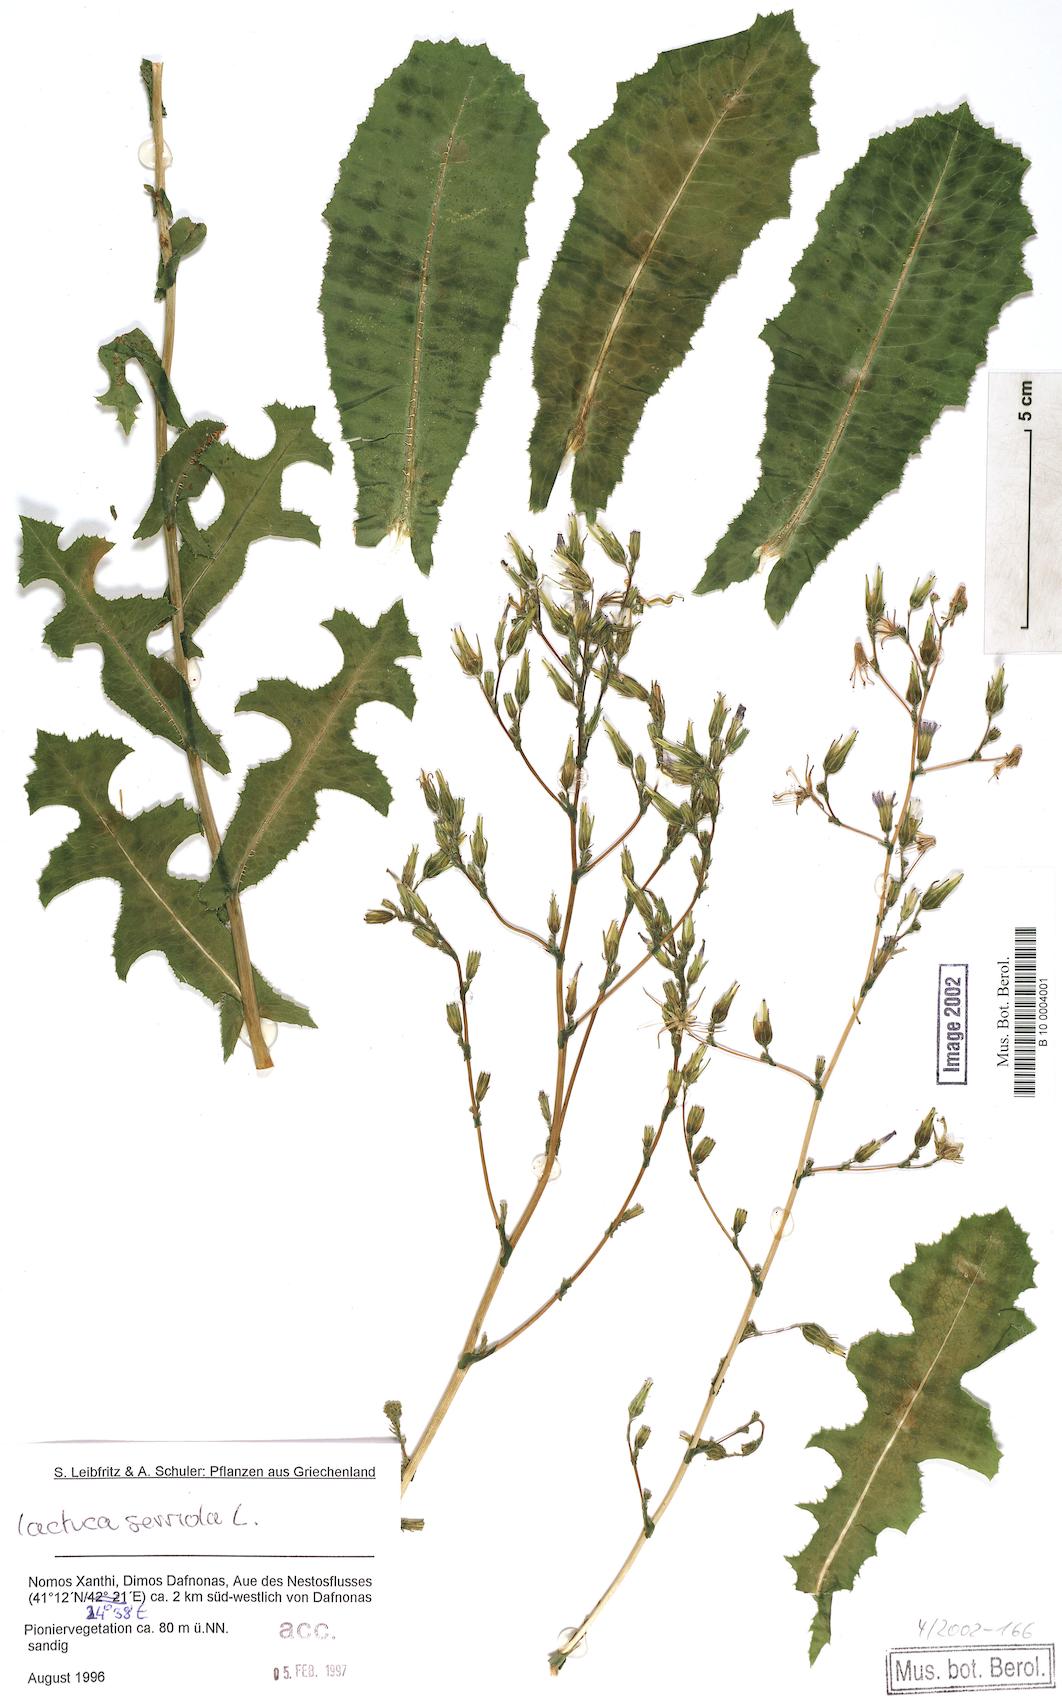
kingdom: Plantae
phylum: Tracheophyta
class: Magnoliopsida
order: Asterales
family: Asteraceae
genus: Lactuca
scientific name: Lactuca serriola
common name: Prickly lettuce
